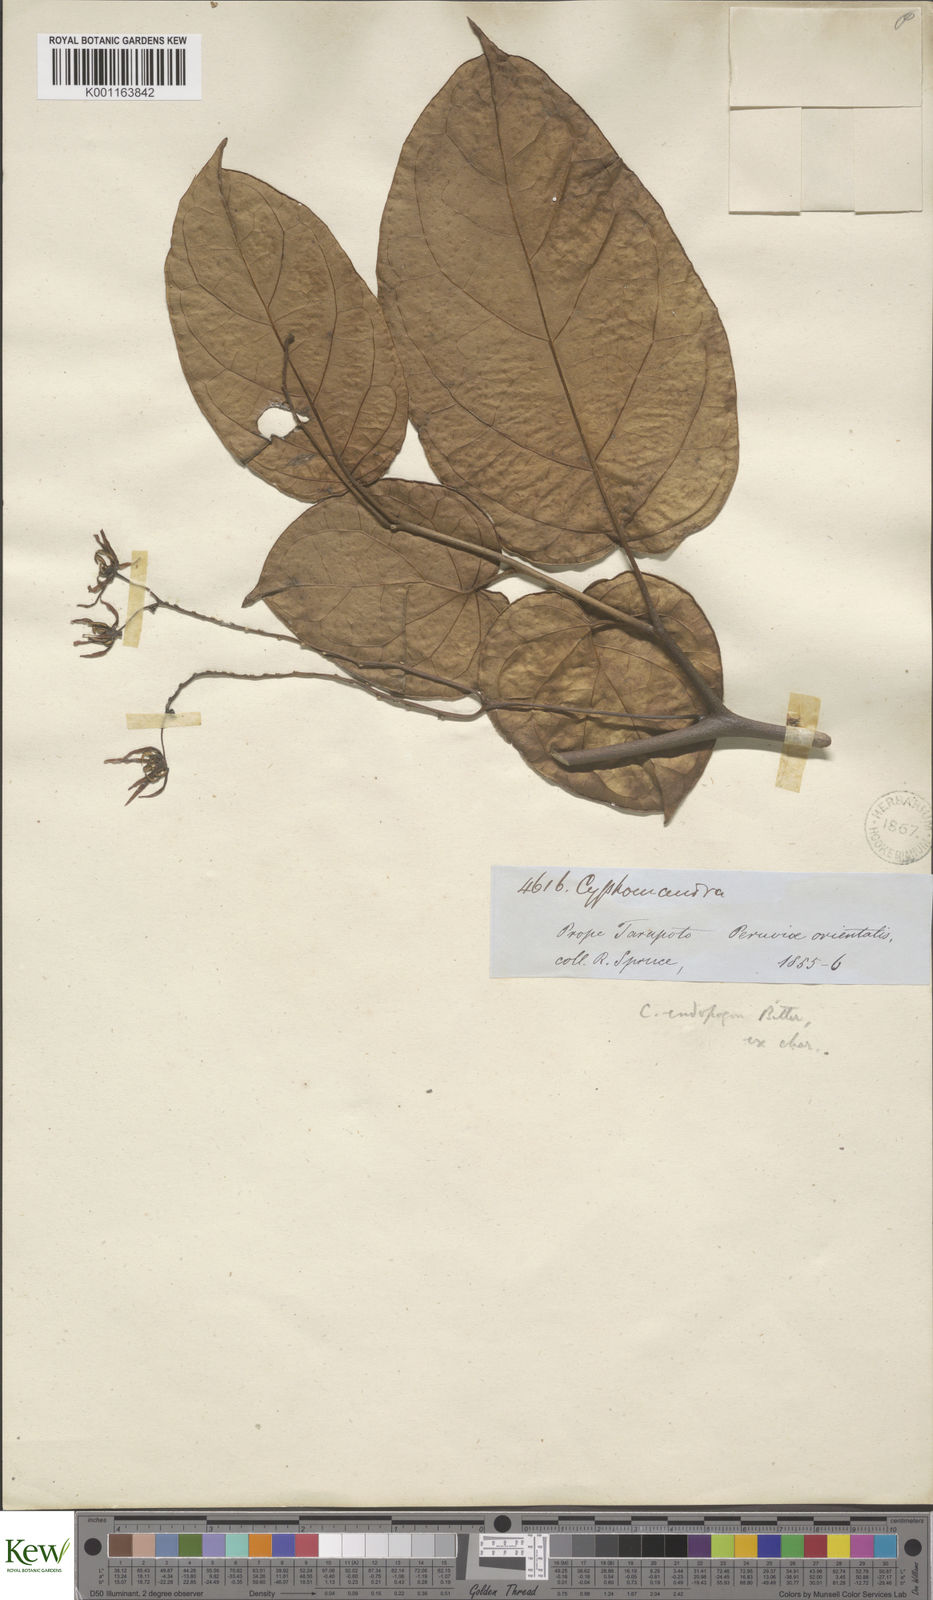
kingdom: Plantae
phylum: Tracheophyta
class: Magnoliopsida
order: Solanales
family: Solanaceae
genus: Solanum
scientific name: Solanum endopogon
